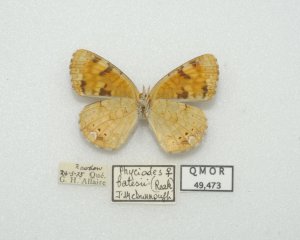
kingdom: Animalia
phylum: Arthropoda
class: Insecta
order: Lepidoptera
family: Nymphalidae
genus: Phyciodes
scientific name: Phyciodes batesii
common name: Tawny Crescent
